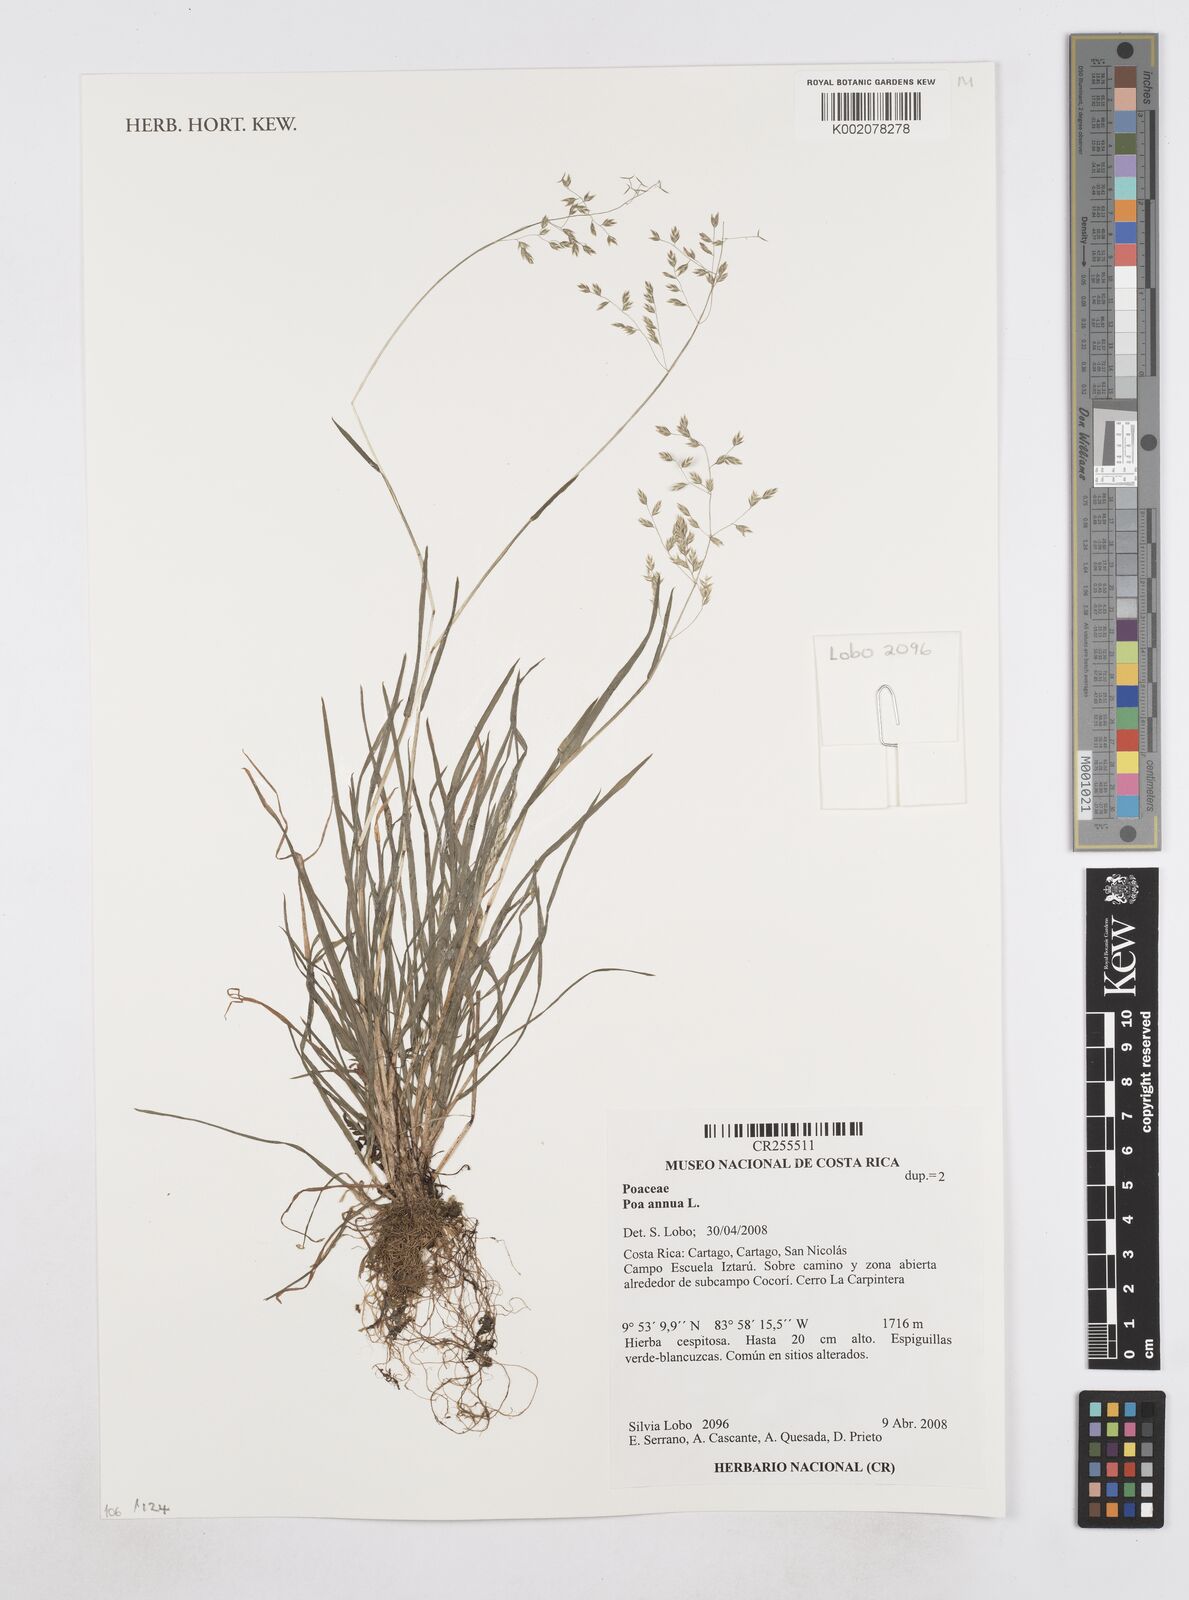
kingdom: Plantae
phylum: Tracheophyta
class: Liliopsida
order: Poales
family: Poaceae
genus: Poa
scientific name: Poa annua
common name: Annual bluegrass
